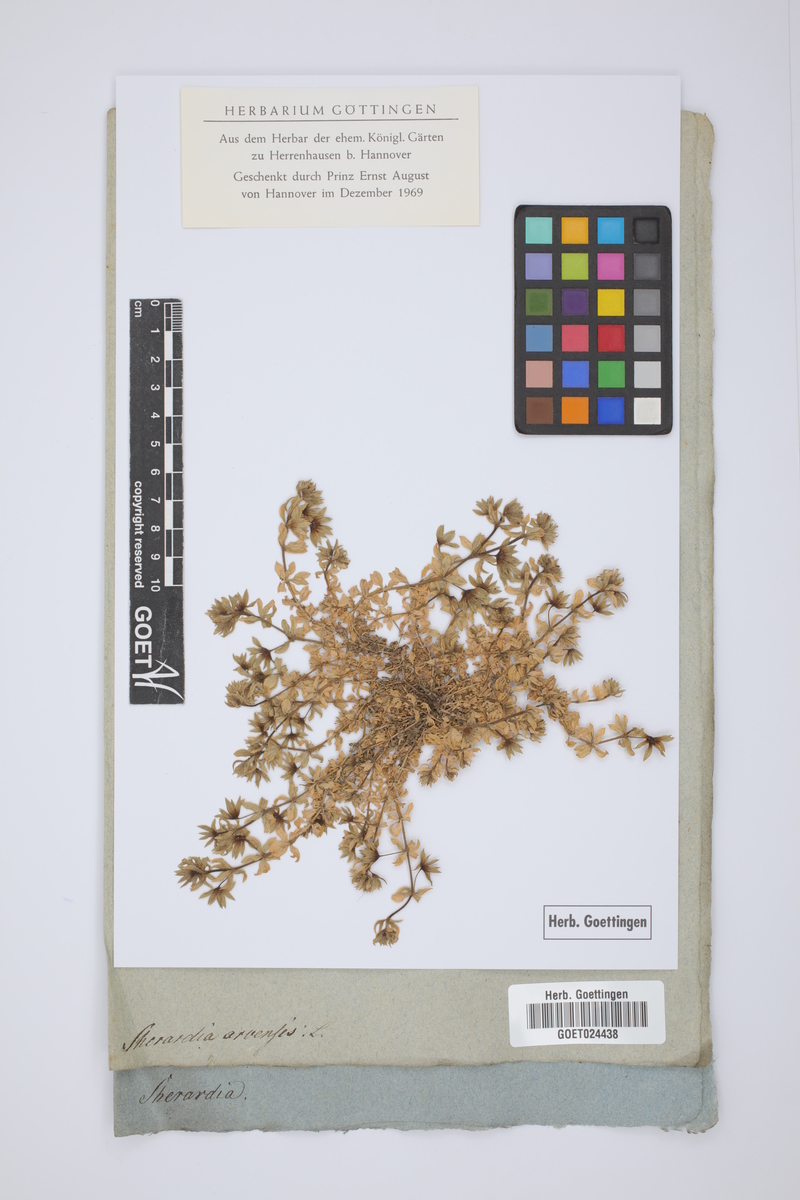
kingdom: Plantae
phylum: Tracheophyta
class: Magnoliopsida
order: Gentianales
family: Rubiaceae
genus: Sherardia
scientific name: Sherardia arvensis
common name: Field madder
